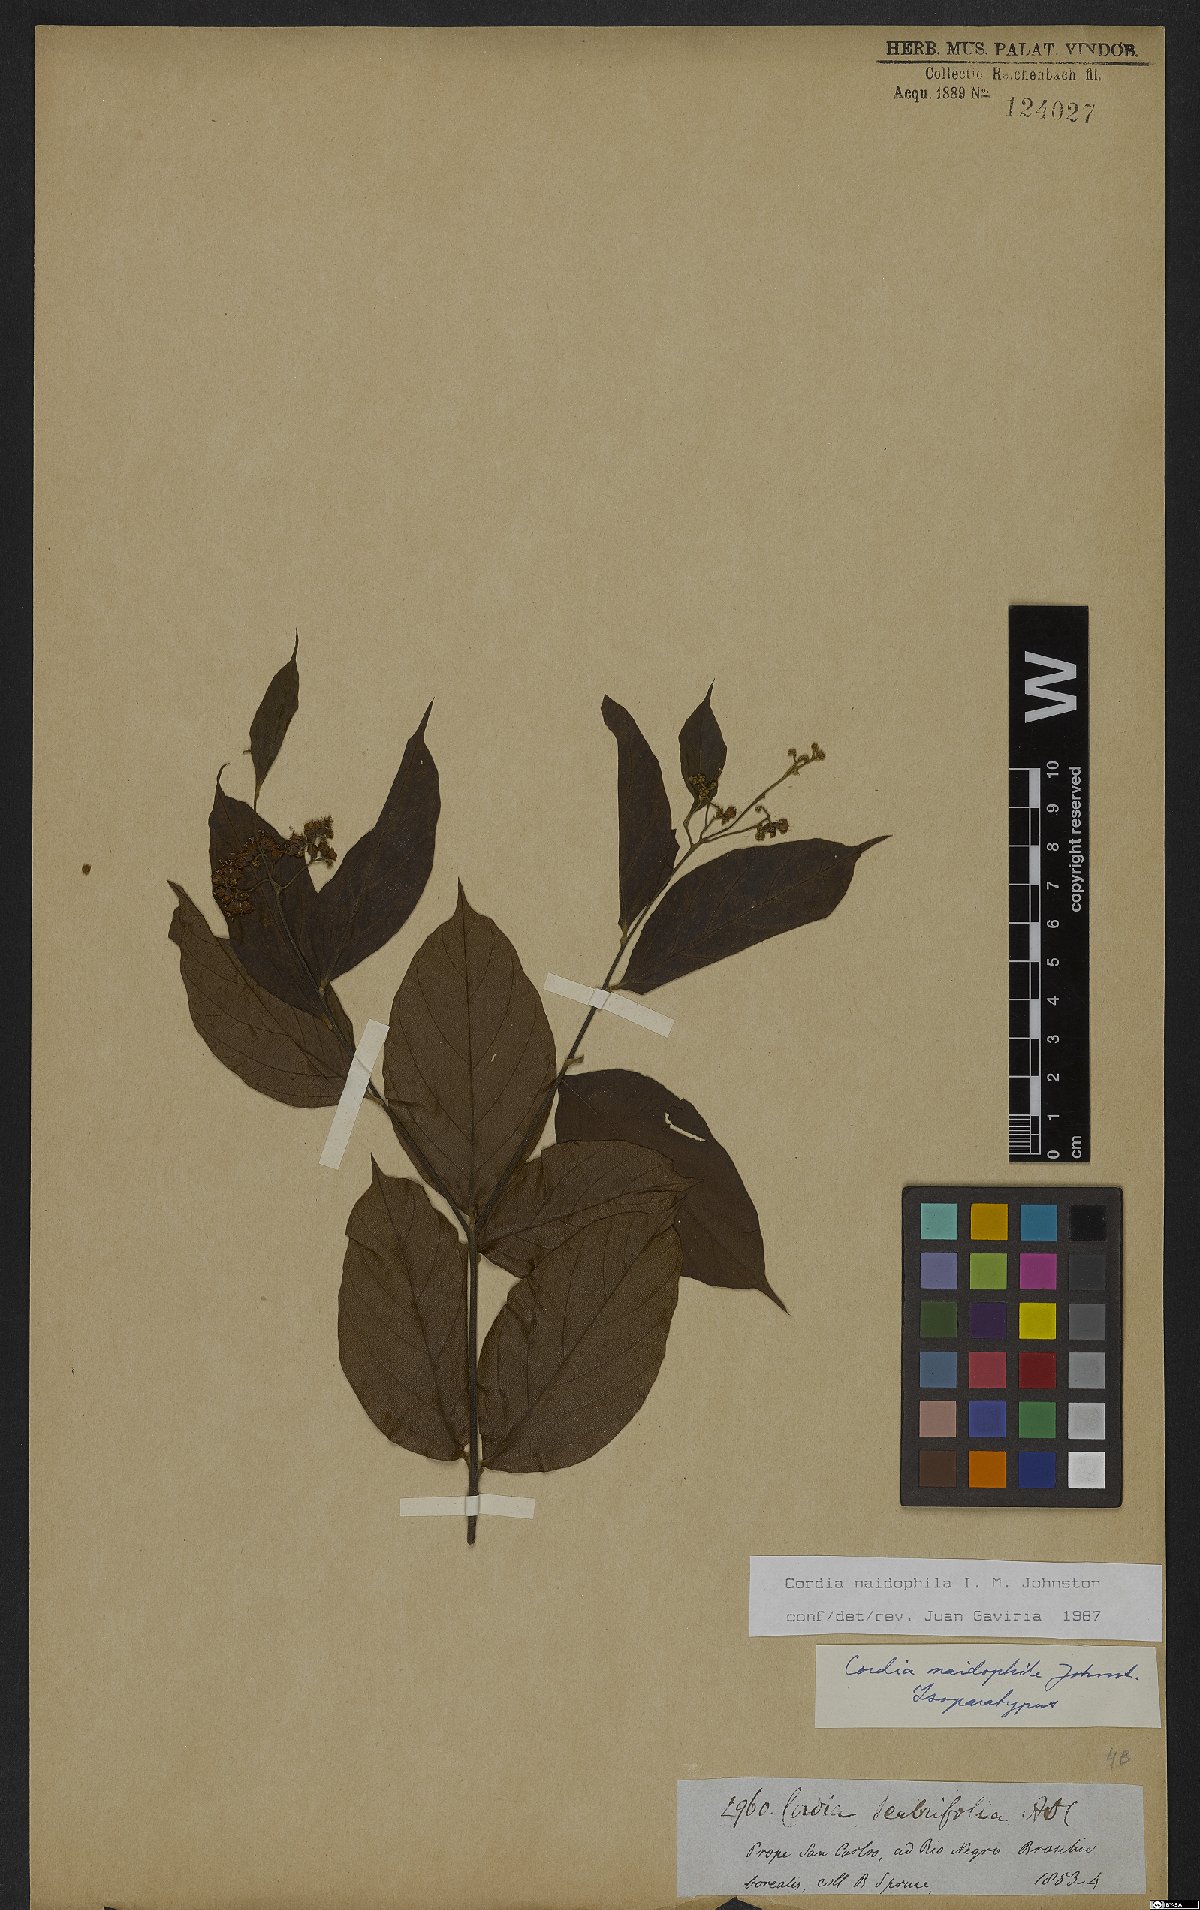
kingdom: Plantae
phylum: Tracheophyta
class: Magnoliopsida
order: Boraginales
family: Cordiaceae
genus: Cordia
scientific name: Cordia naidophila
